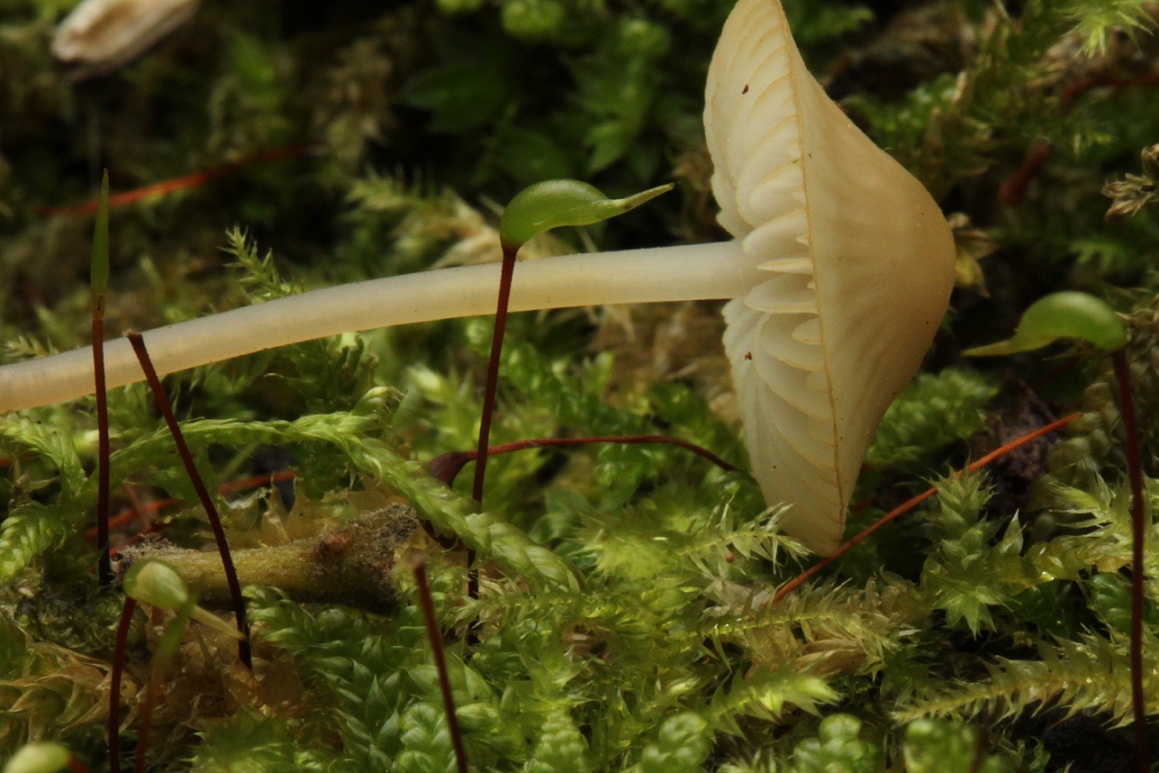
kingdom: Fungi
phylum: Basidiomycota
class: Agaricomycetes
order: Agaricales
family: Mycenaceae
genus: Mycena
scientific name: Mycena flavescens
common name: grågul huesvamp
